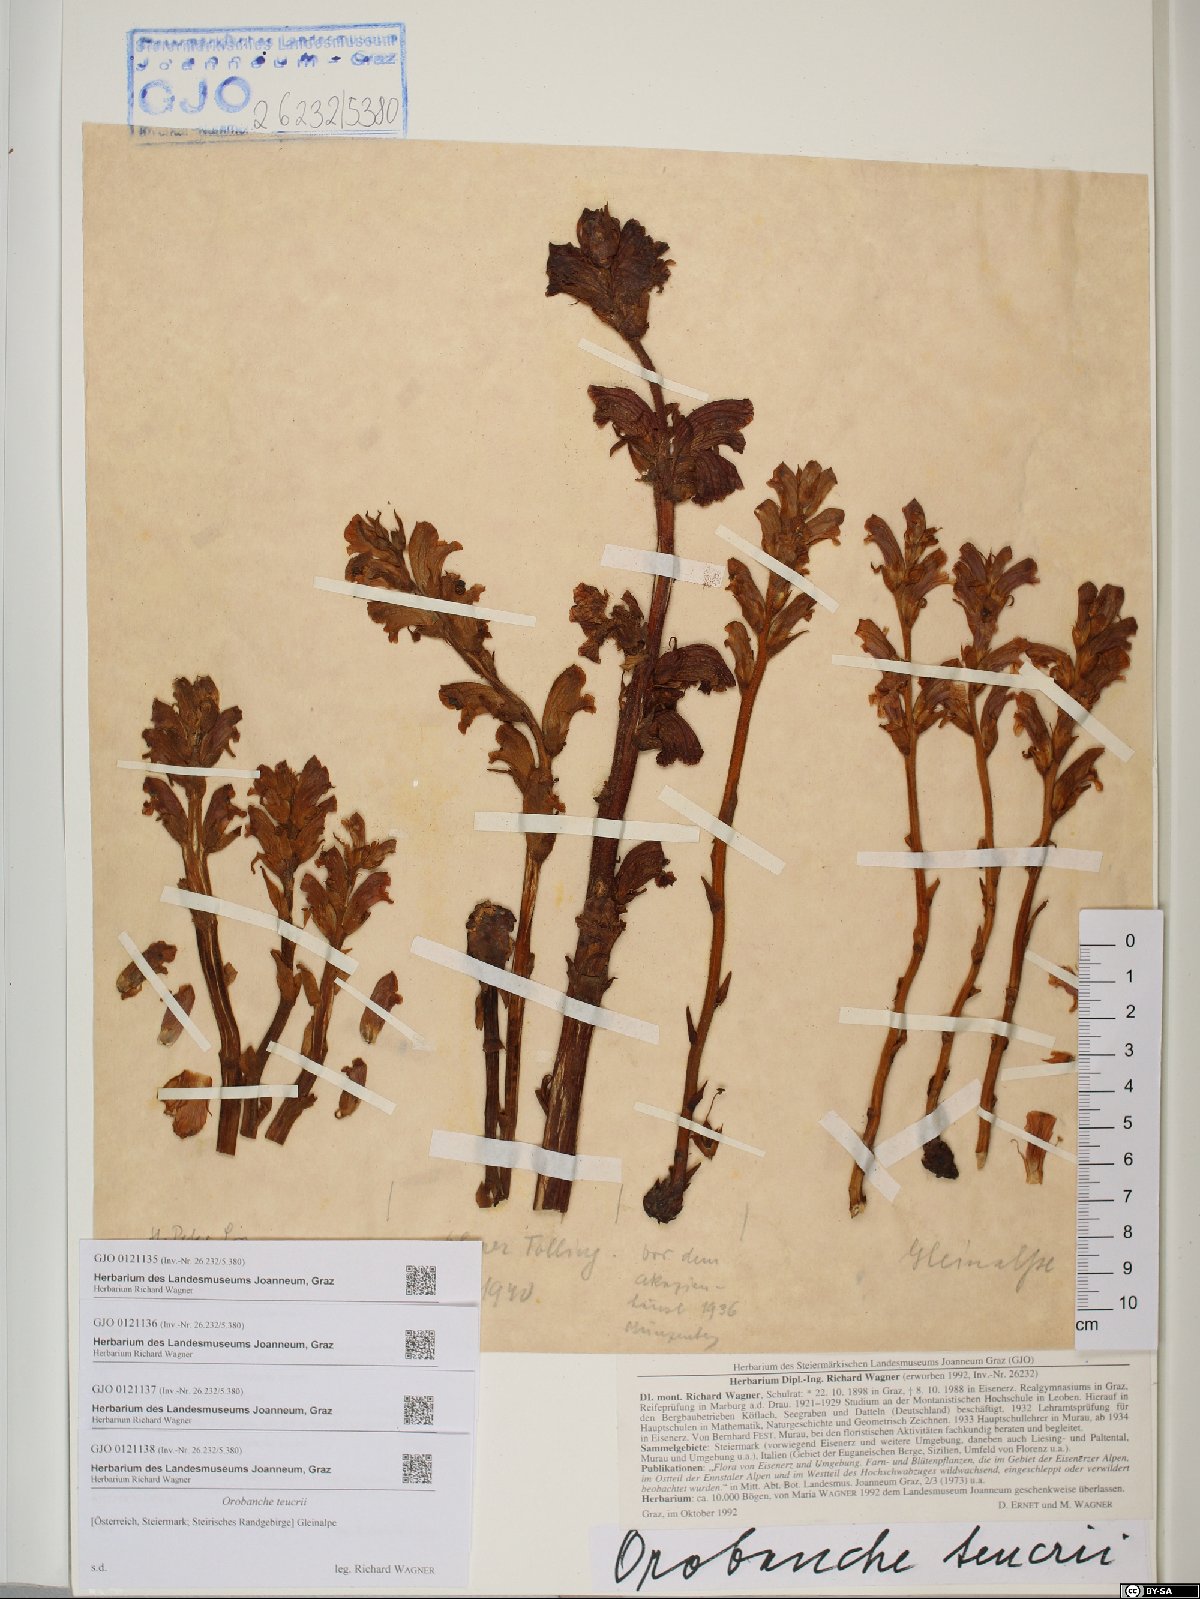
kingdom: Plantae
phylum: Tracheophyta
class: Magnoliopsida
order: Lamiales
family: Orobanchaceae
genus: Orobanche
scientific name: Orobanche teucrii
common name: Germander broomrape
